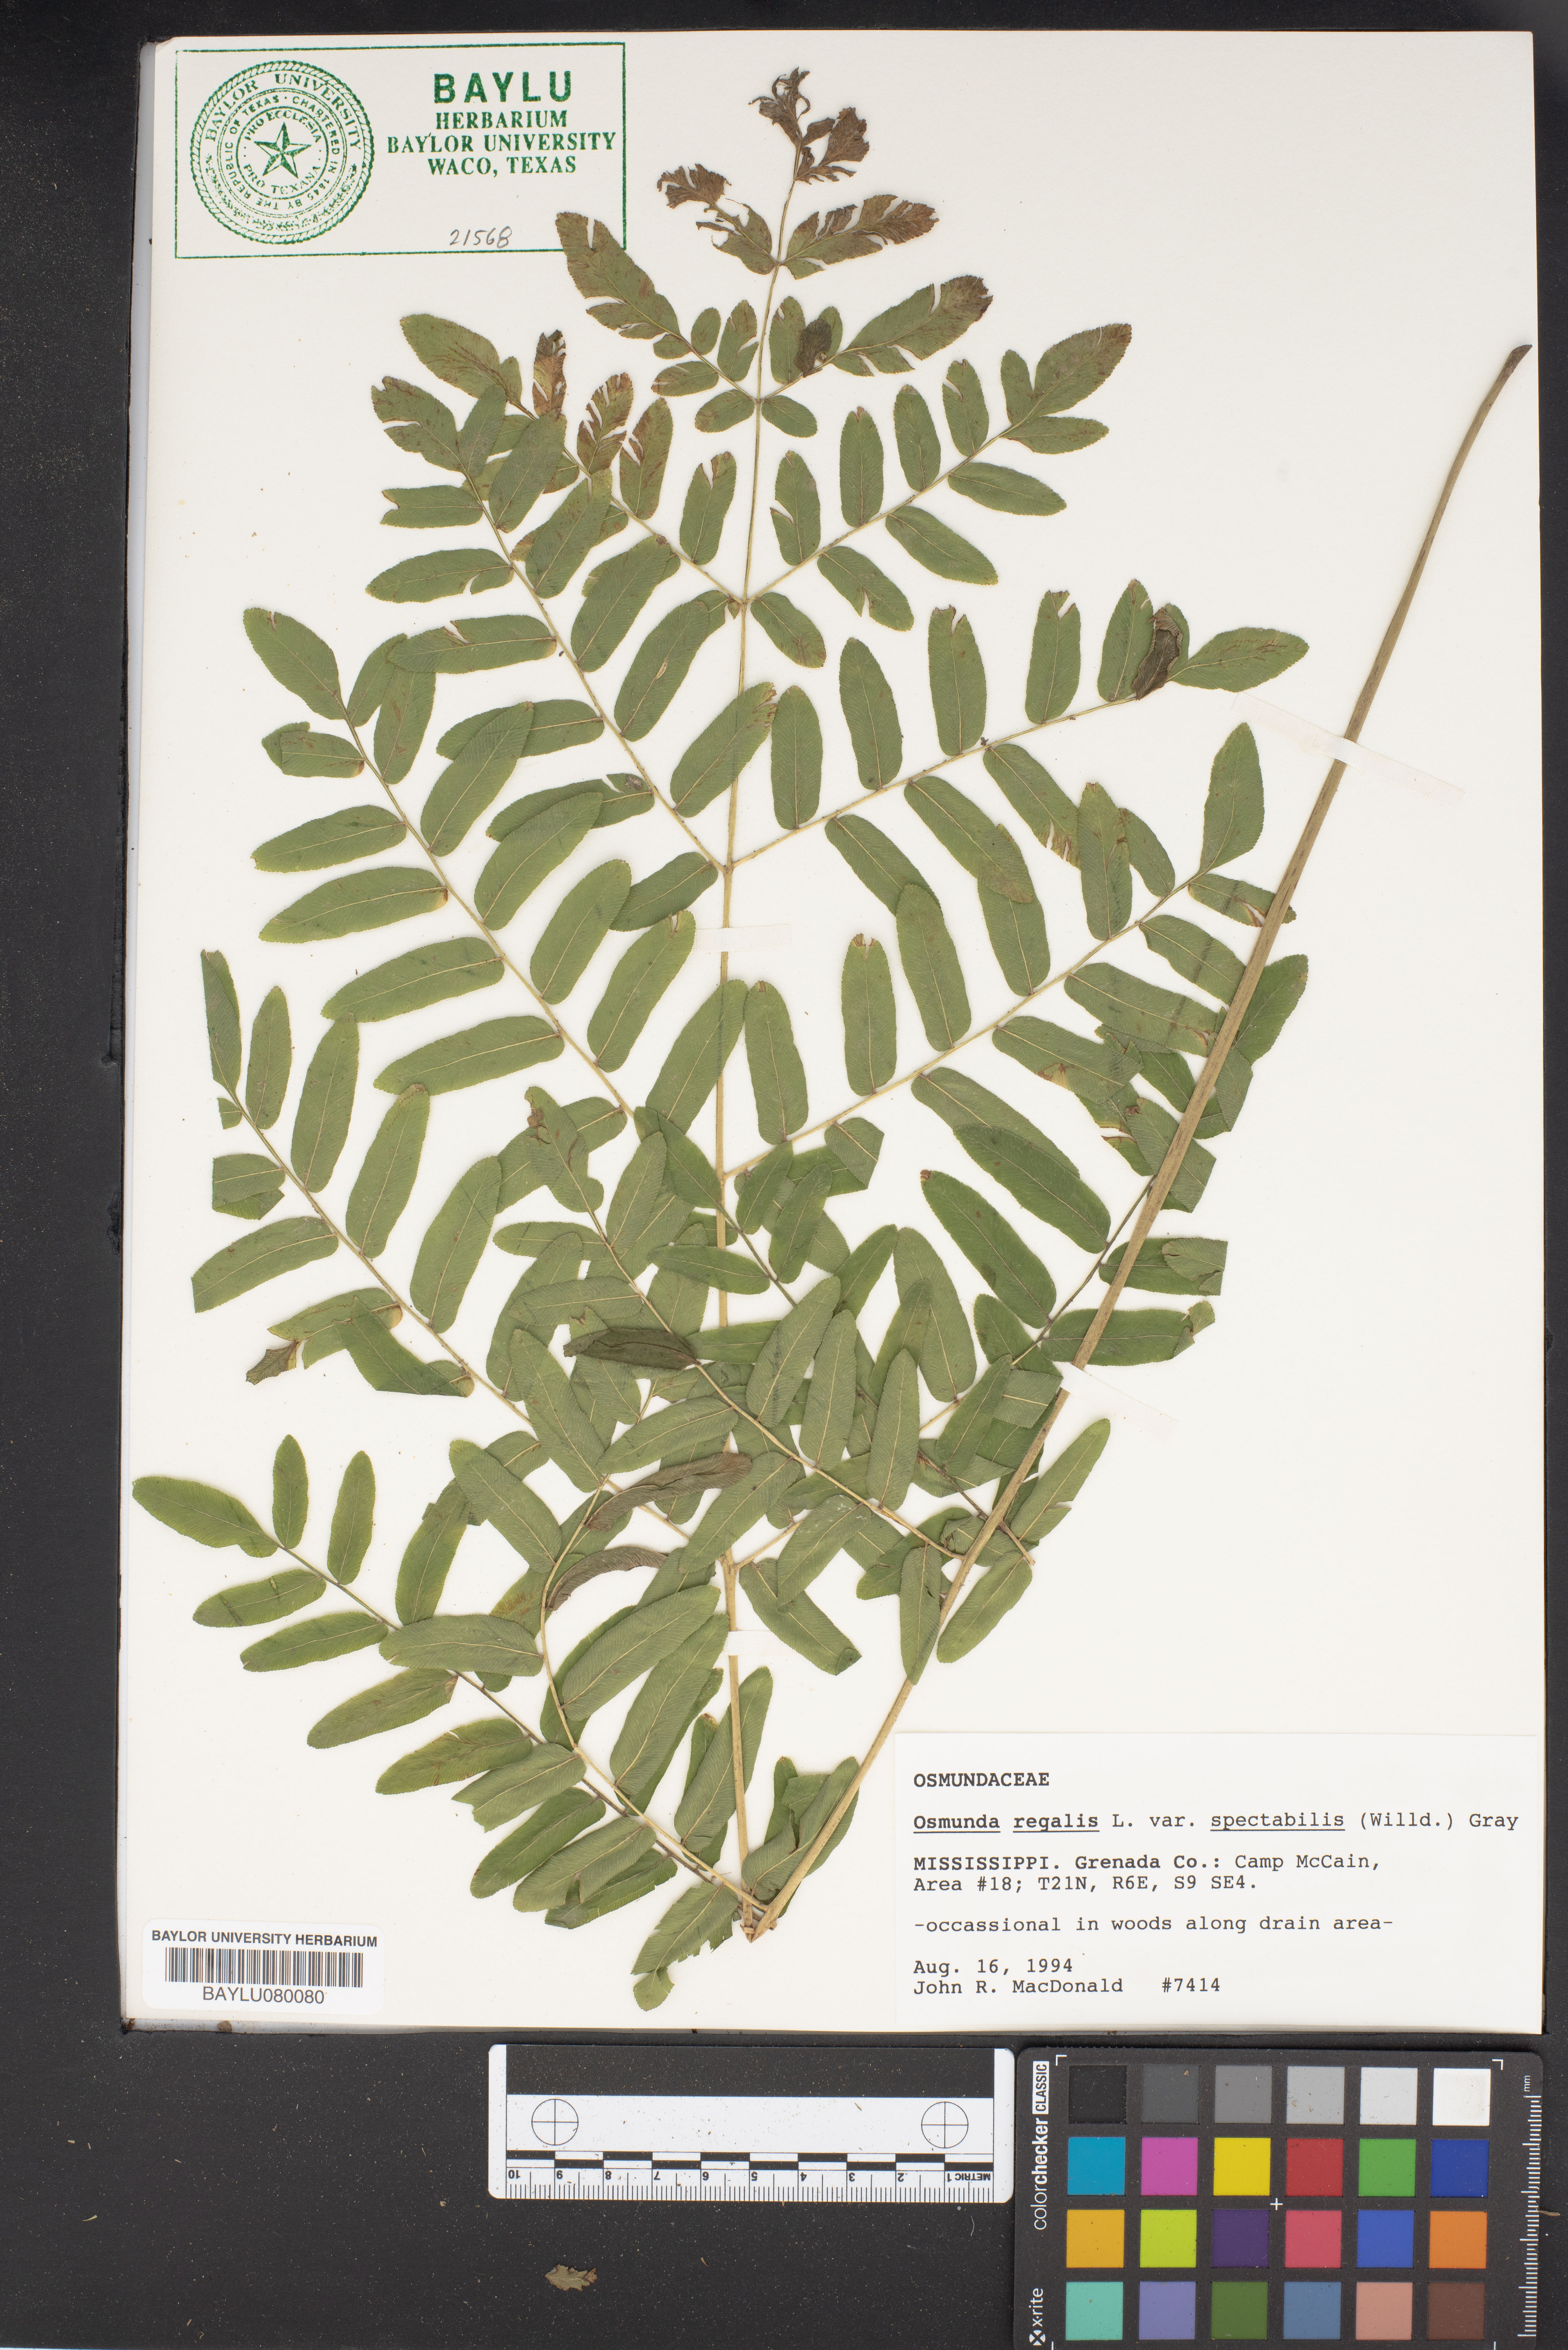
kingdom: Plantae
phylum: Tracheophyta
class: Polypodiopsida
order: Osmundales
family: Osmundaceae
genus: Osmunda
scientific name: Osmunda spectabilis
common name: American royal fern
